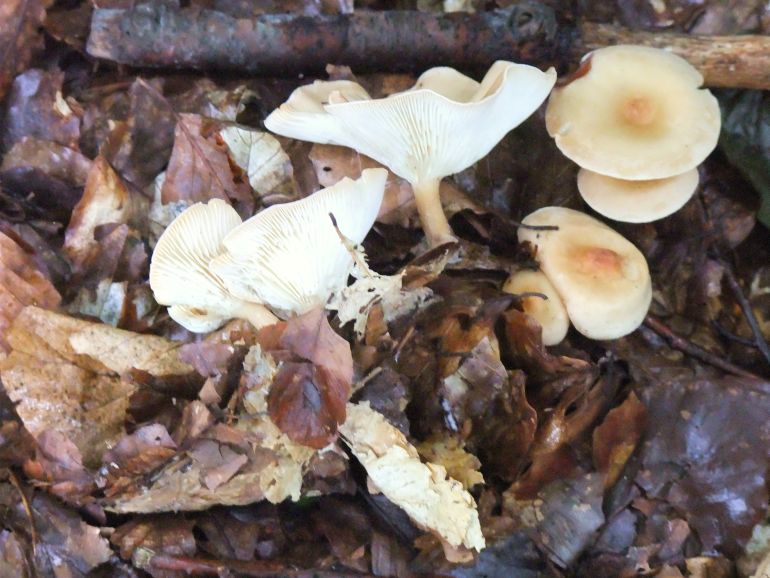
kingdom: Fungi
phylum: Basidiomycota
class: Agaricomycetes
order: Agaricales
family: Tricholomataceae
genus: Infundibulicybe
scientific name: Infundibulicybe gibba
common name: almindelig tragthat
